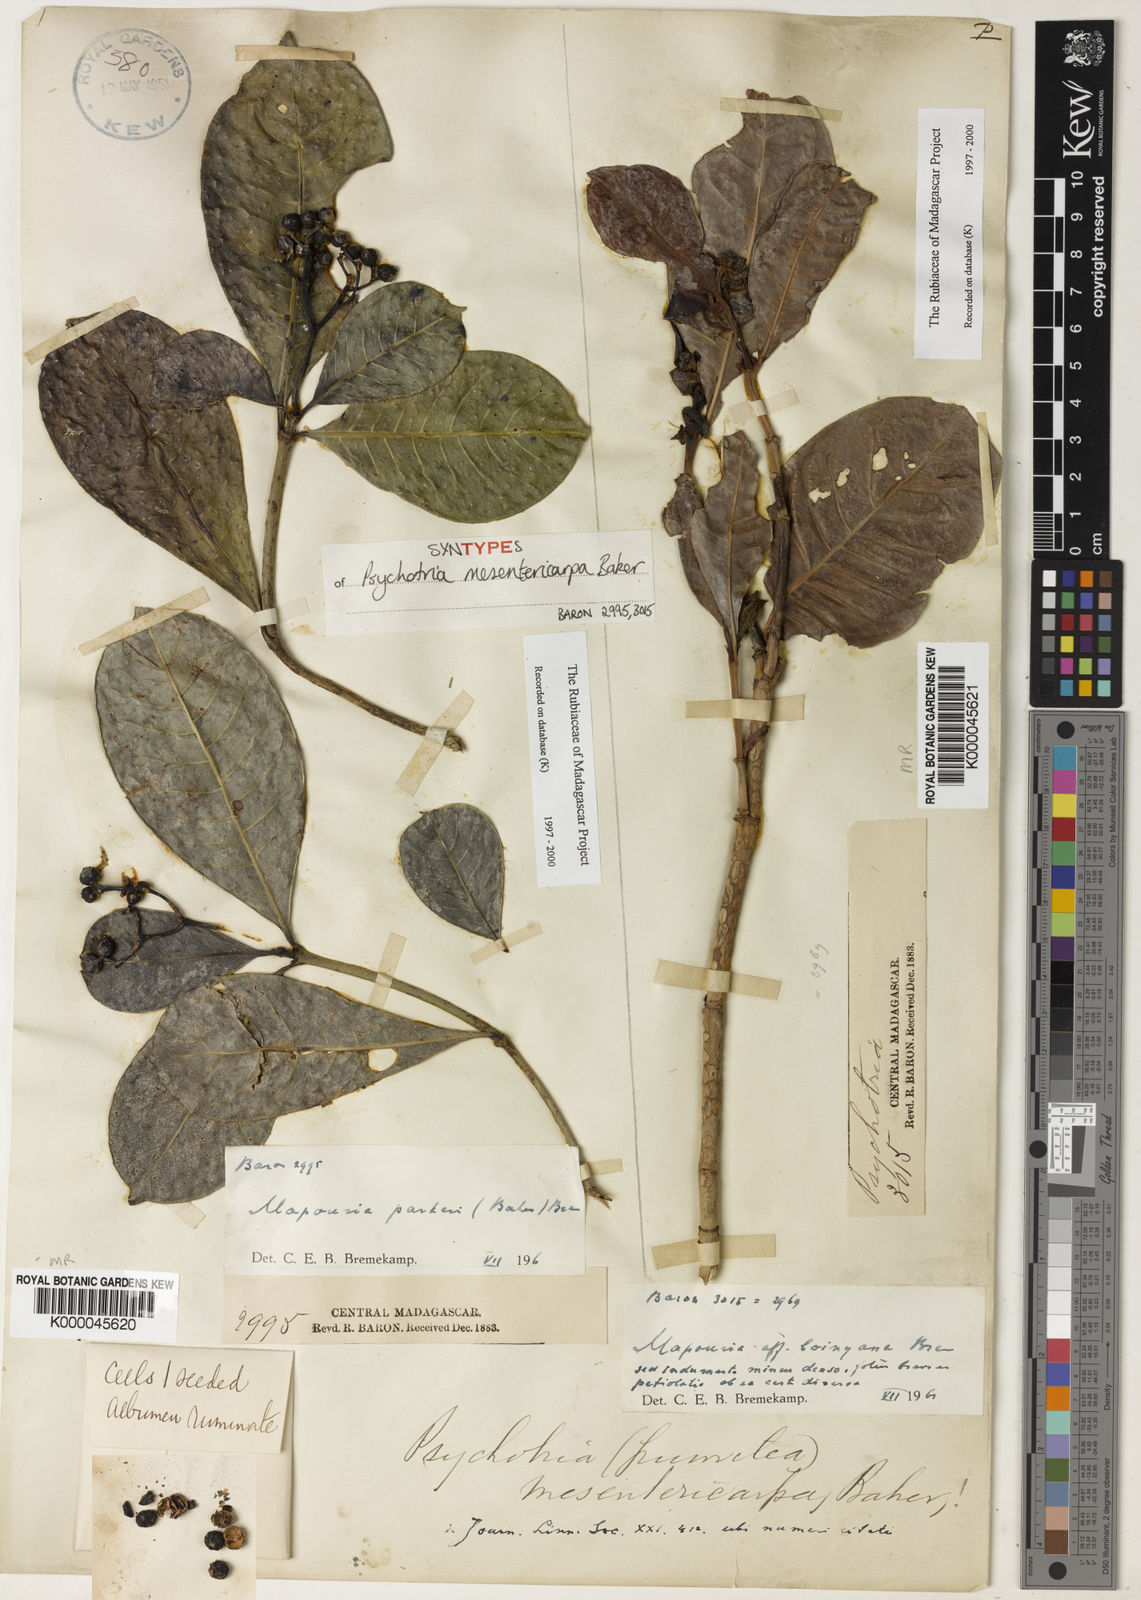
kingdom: Plantae
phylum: Tracheophyta
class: Magnoliopsida
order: Gentianales
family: Rubiaceae
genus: Psychotria
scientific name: Psychotria mesentericarpa
